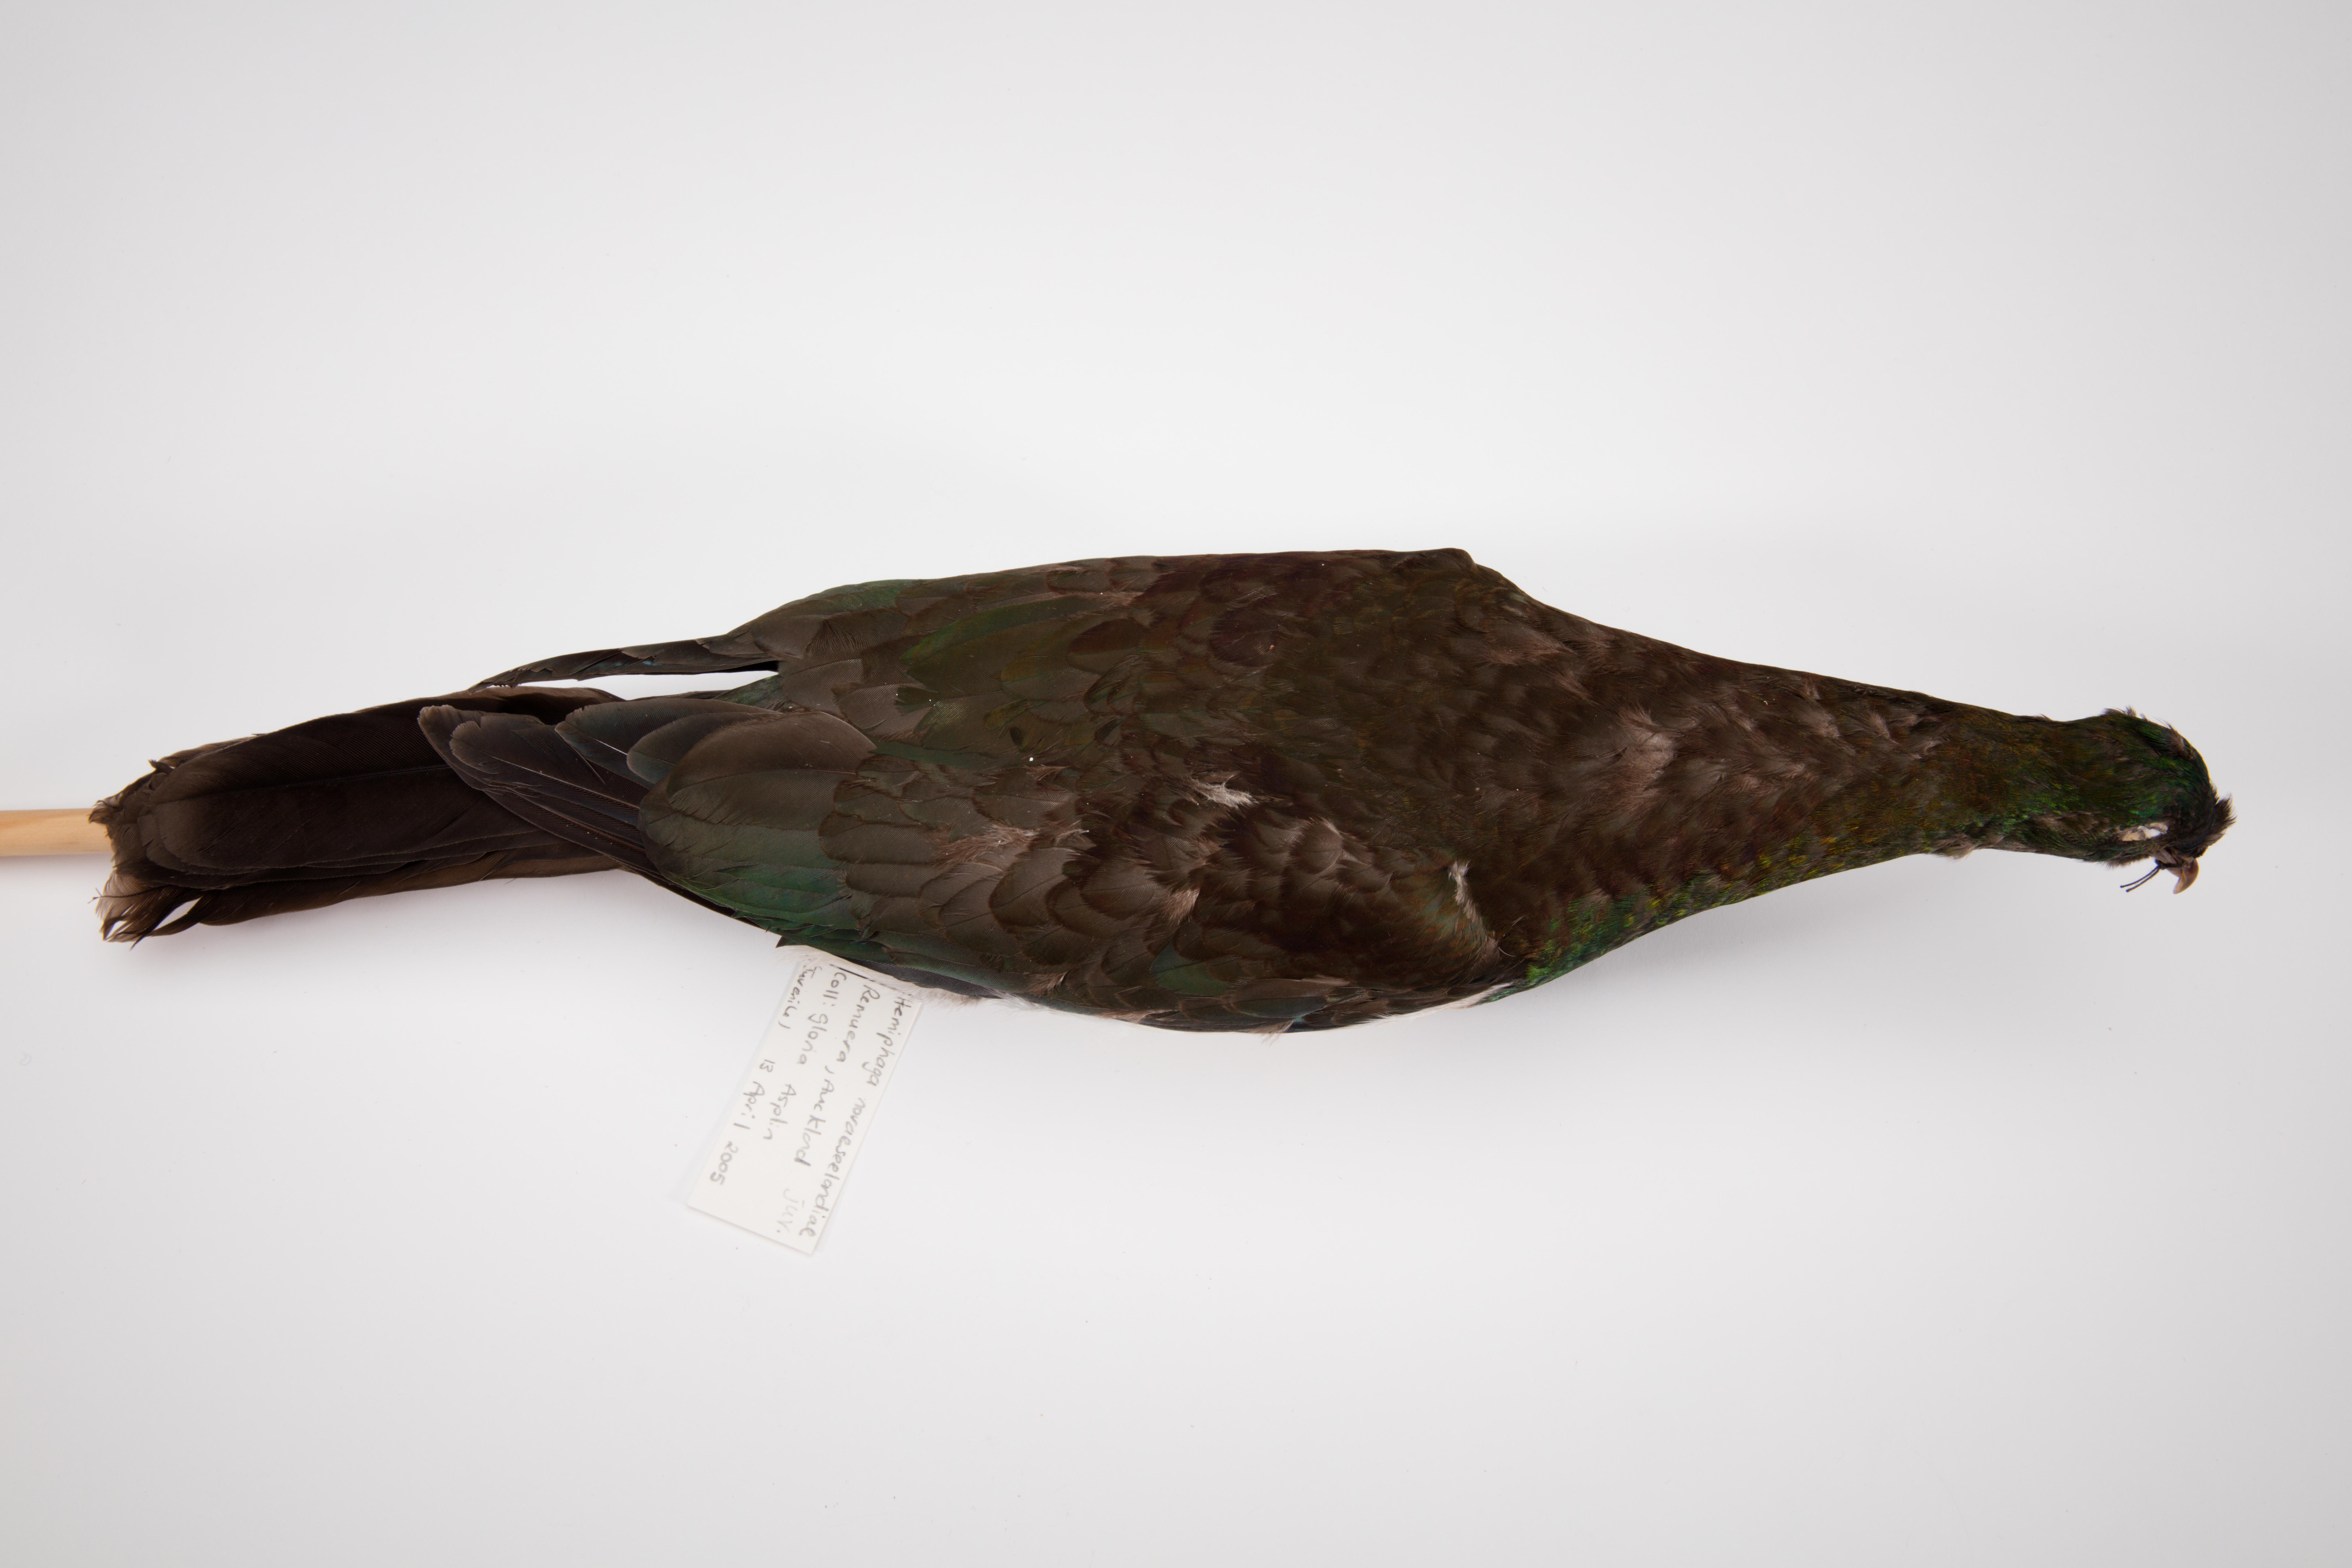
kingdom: Animalia
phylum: Chordata
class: Aves
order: Columbiformes
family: Columbidae
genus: Hemiphaga
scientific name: Hemiphaga novaeseelandiae
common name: New zealand pigeon
